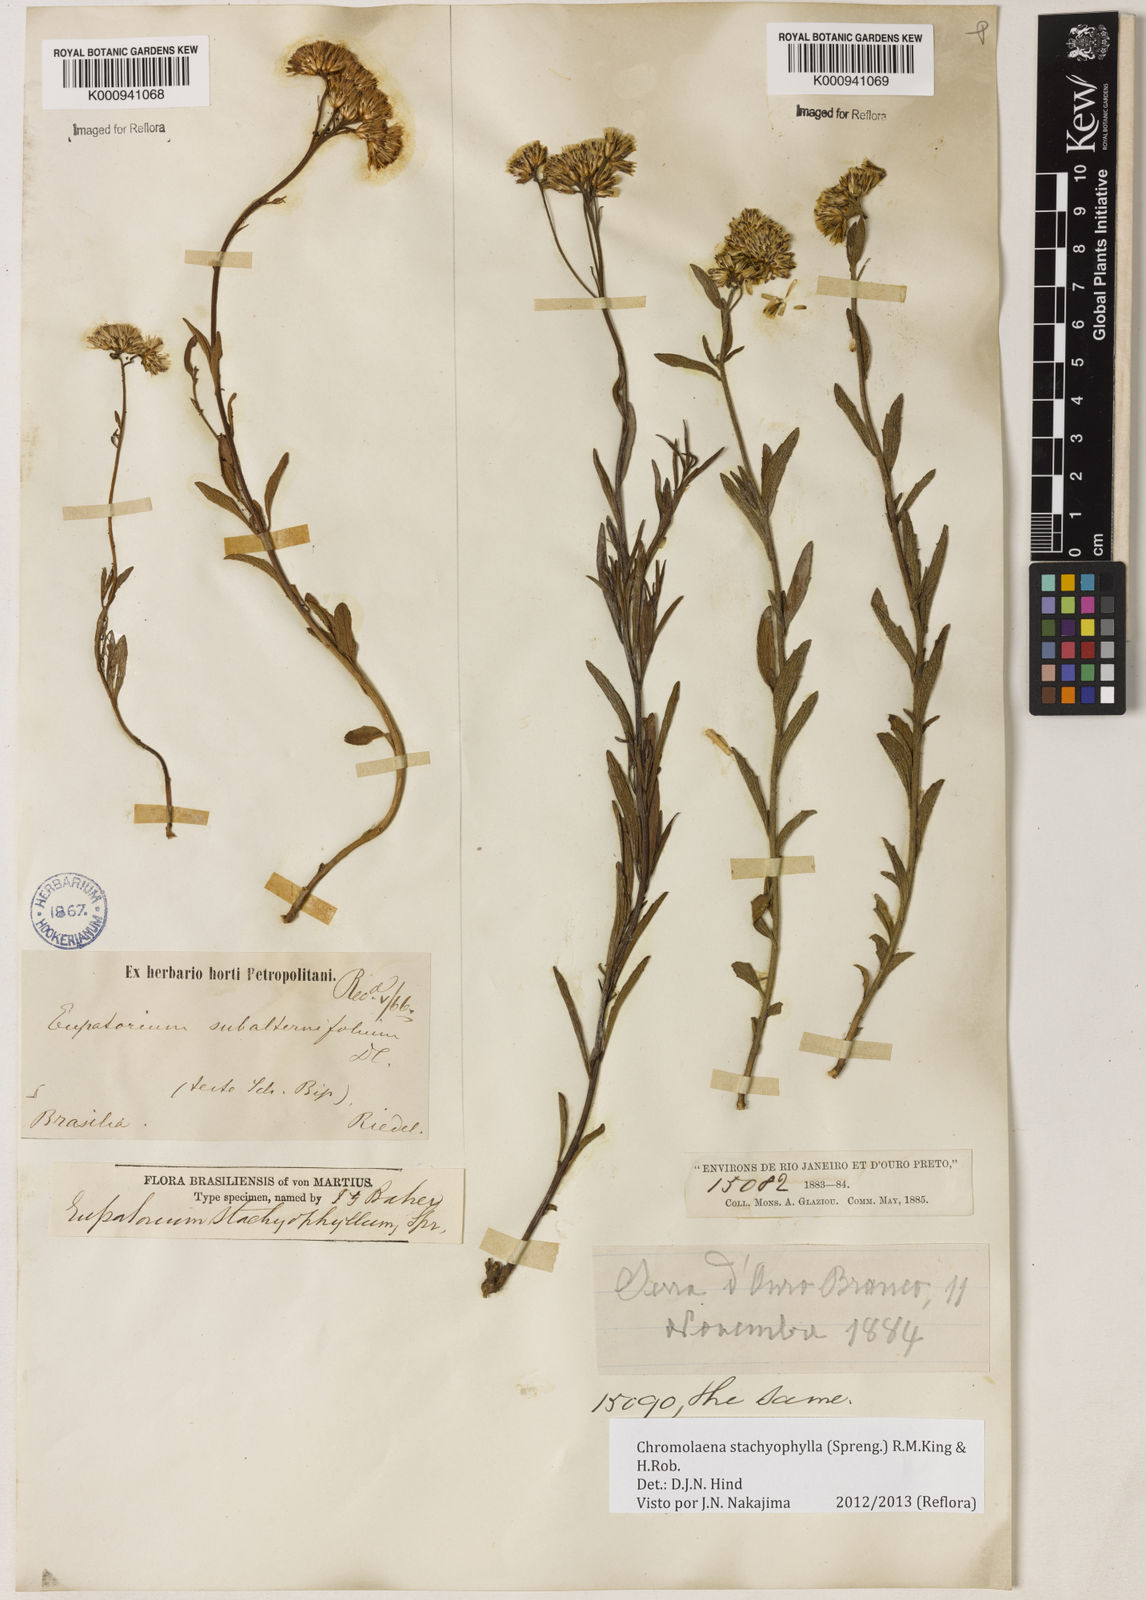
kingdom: Plantae
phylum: Tracheophyta
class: Magnoliopsida
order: Asterales
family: Asteraceae
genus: Chromolaena
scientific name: Chromolaena stachyophylla
